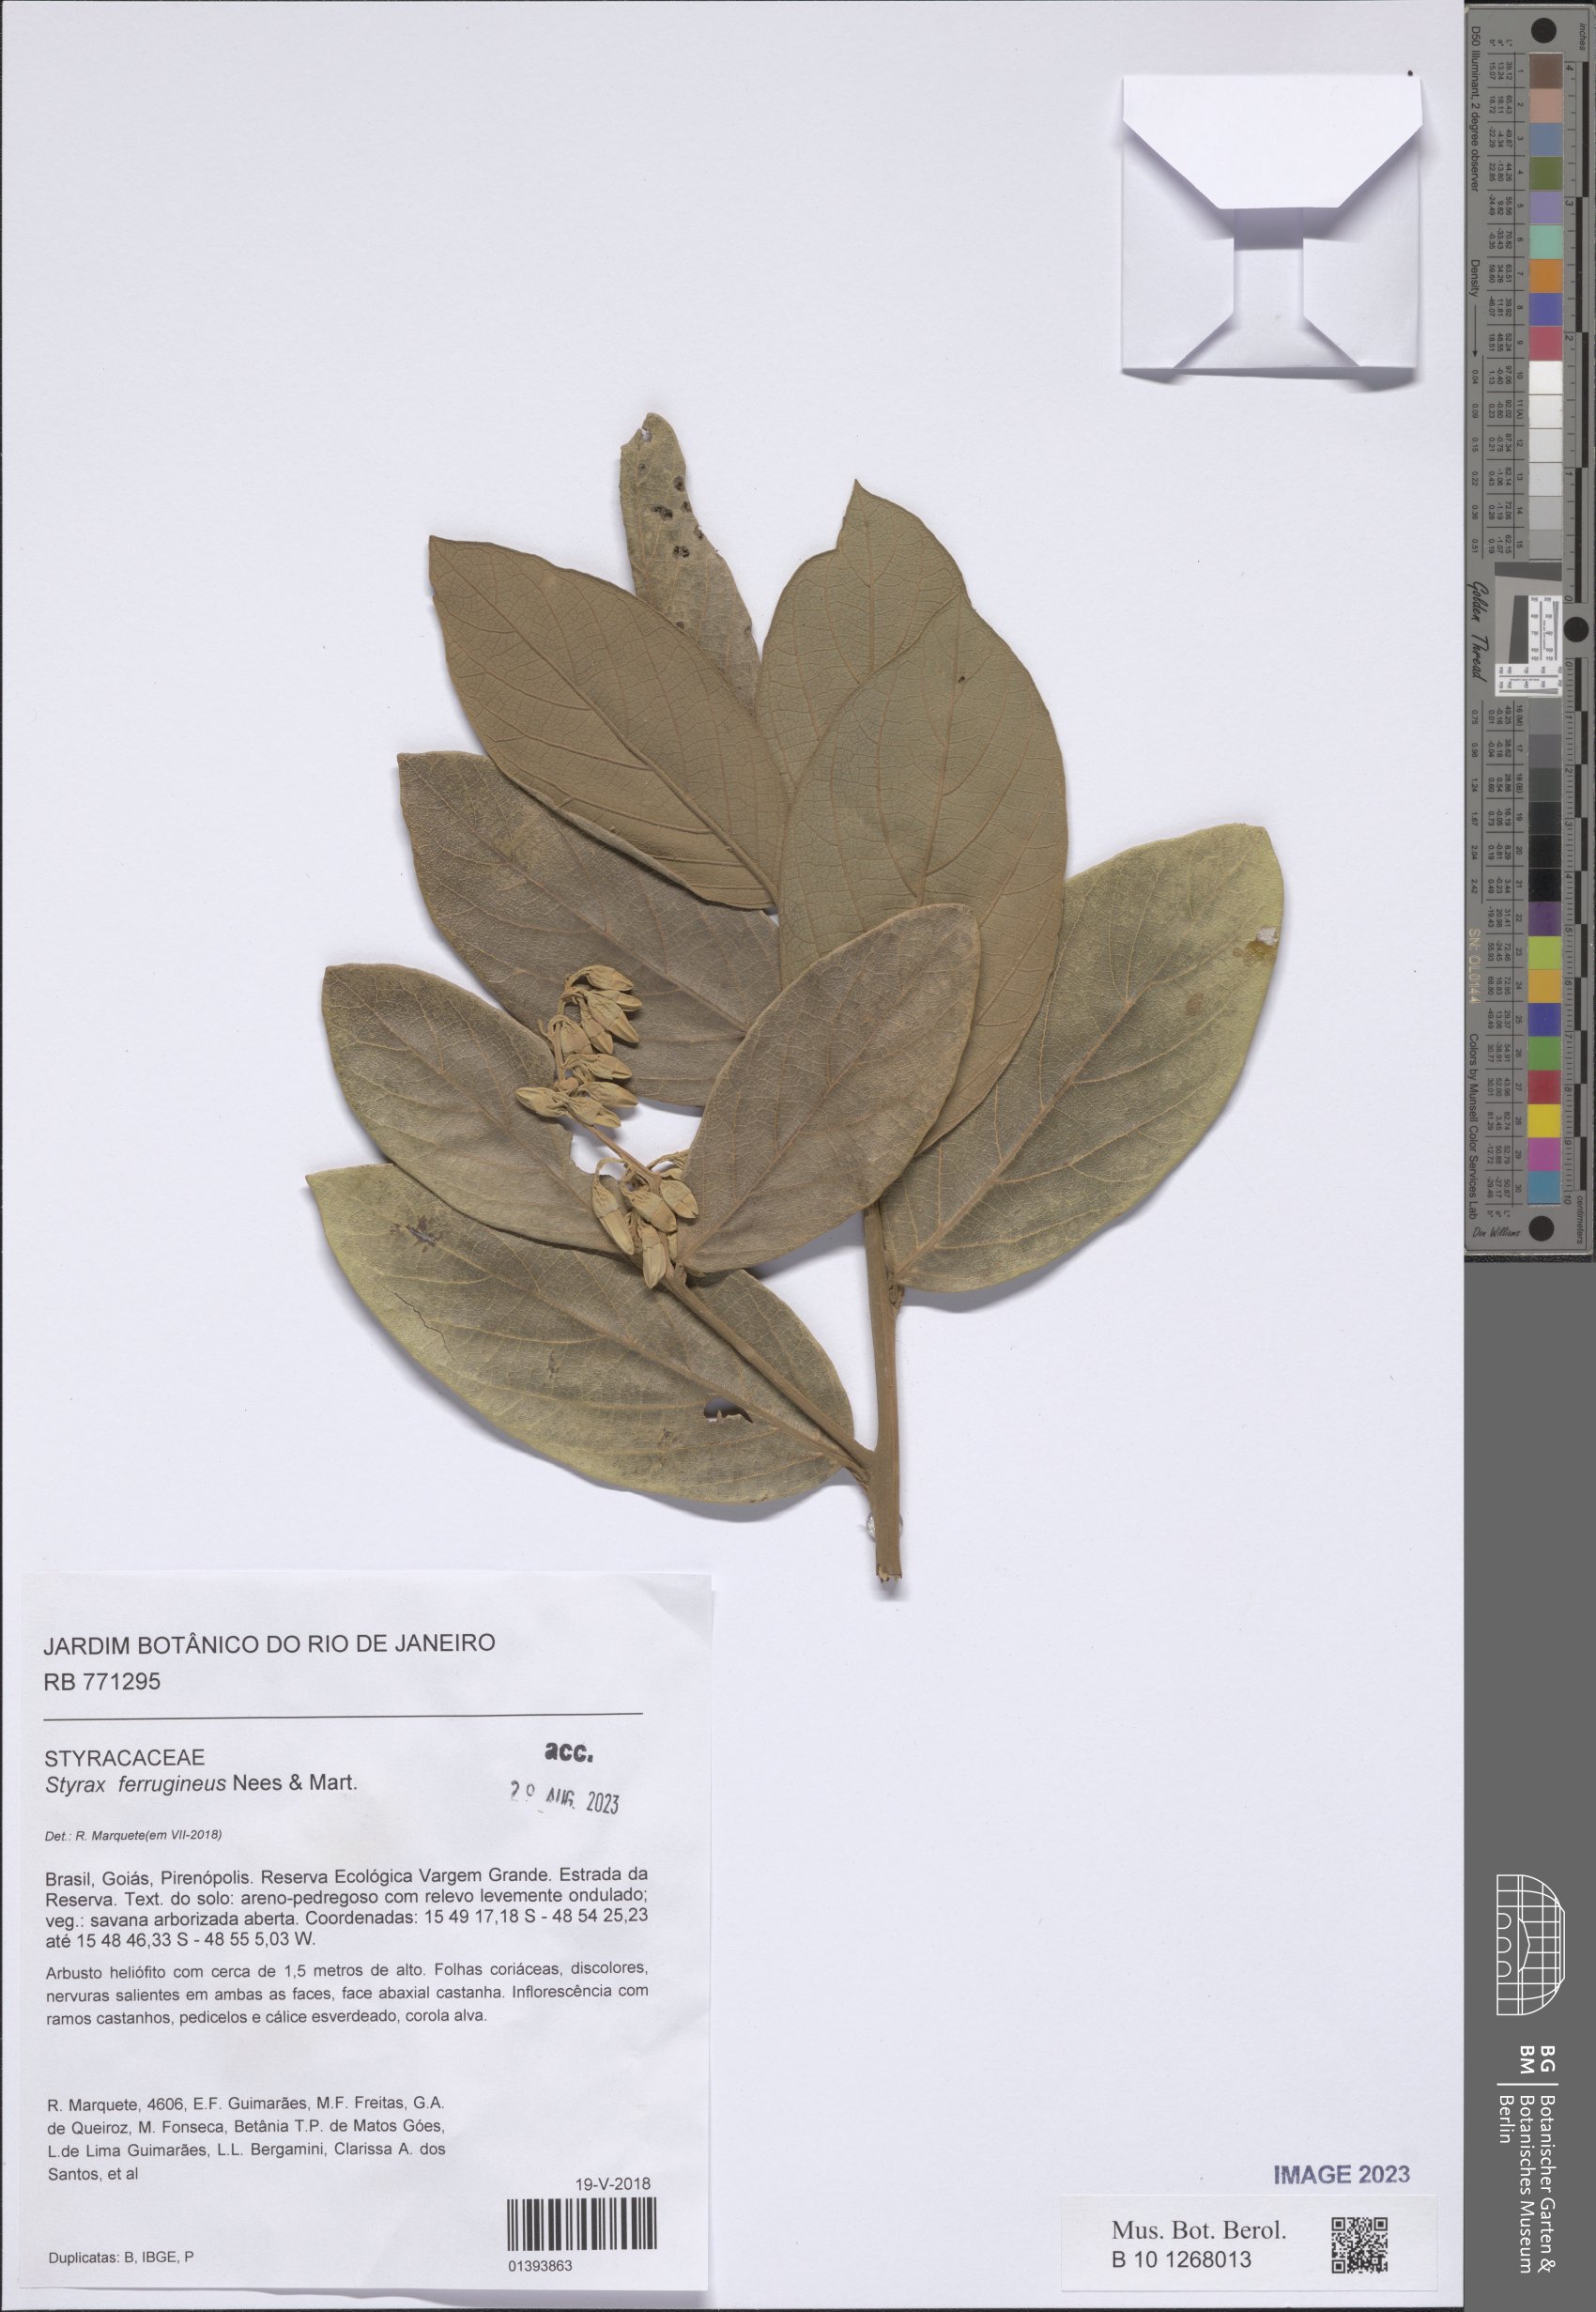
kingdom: Plantae
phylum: Tracheophyta
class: Magnoliopsida
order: Ericales
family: Styracaceae
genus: Styrax
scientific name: Styrax ferrugineus
